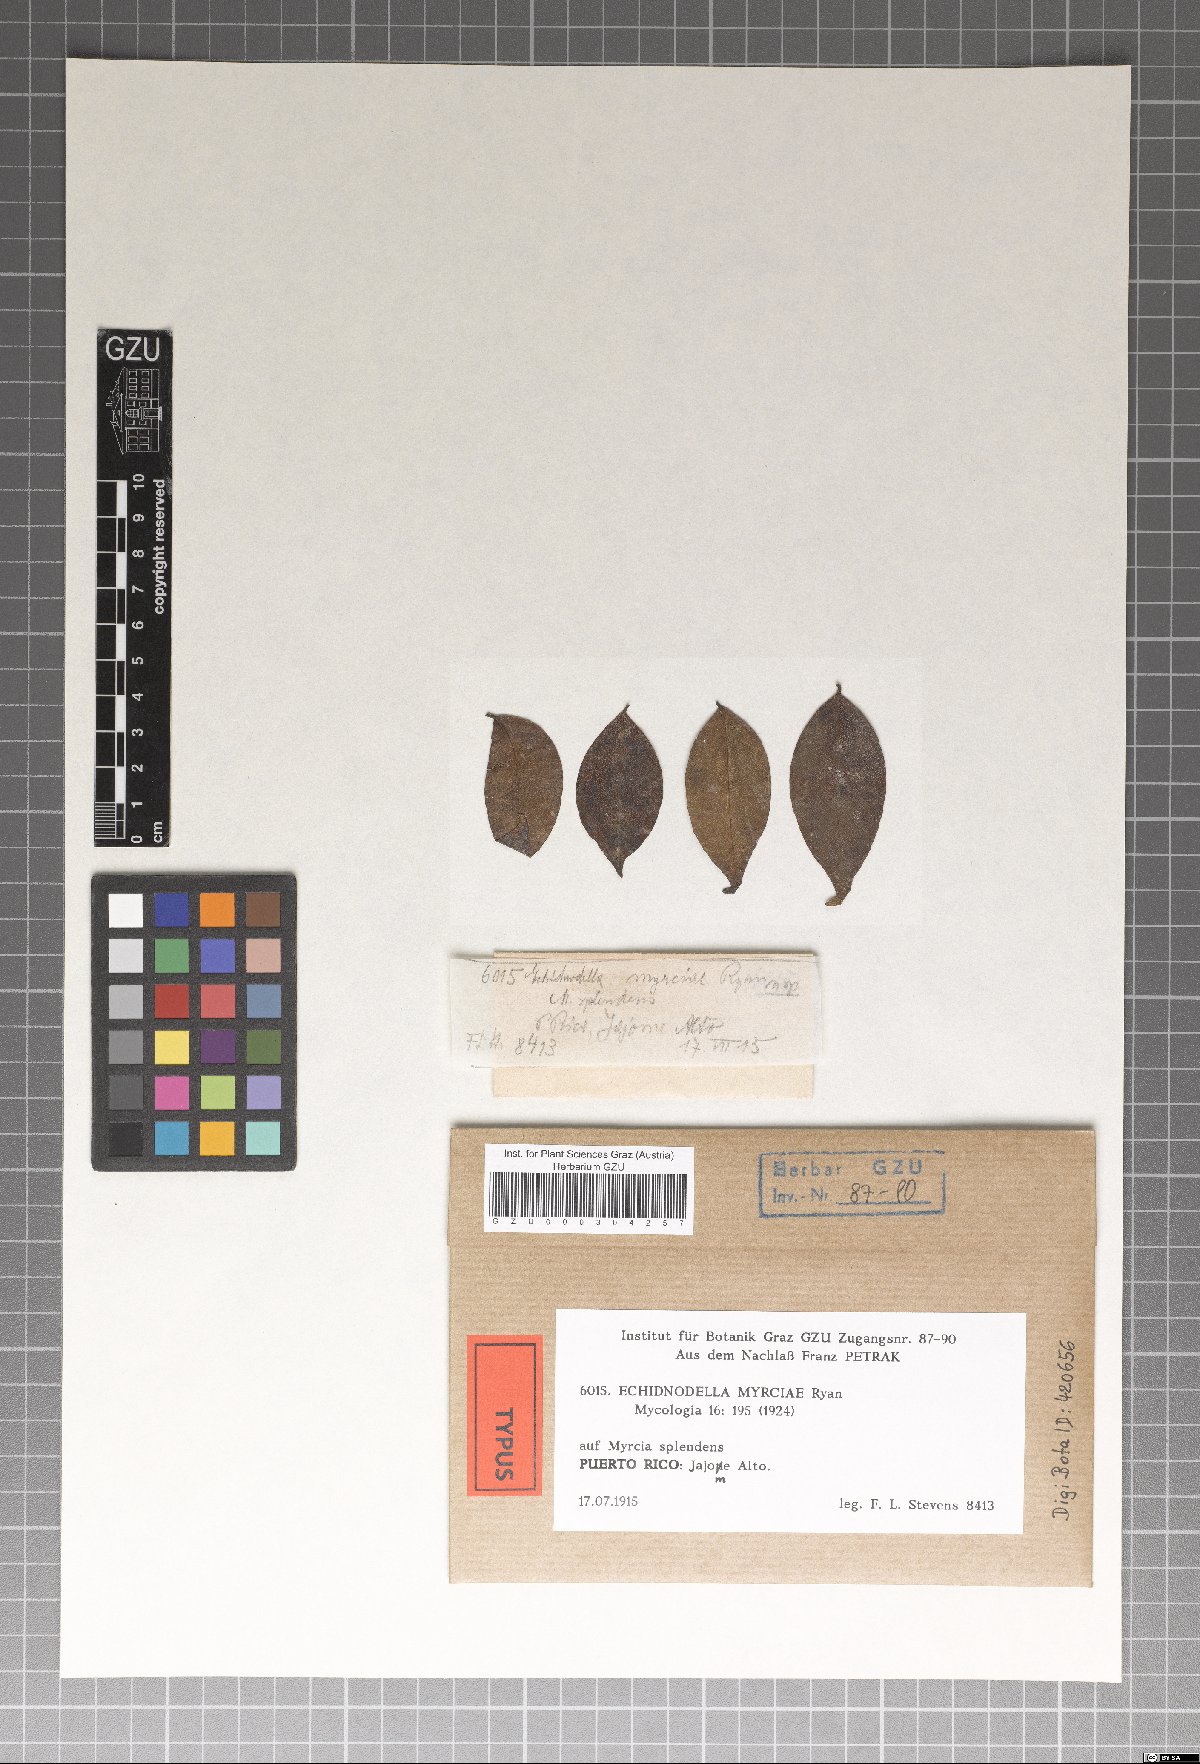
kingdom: Fungi
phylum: Ascomycota
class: Dothideomycetes
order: Asterinales
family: Asterinaceae
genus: Echidnodella
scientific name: Echidnodella myrciae
